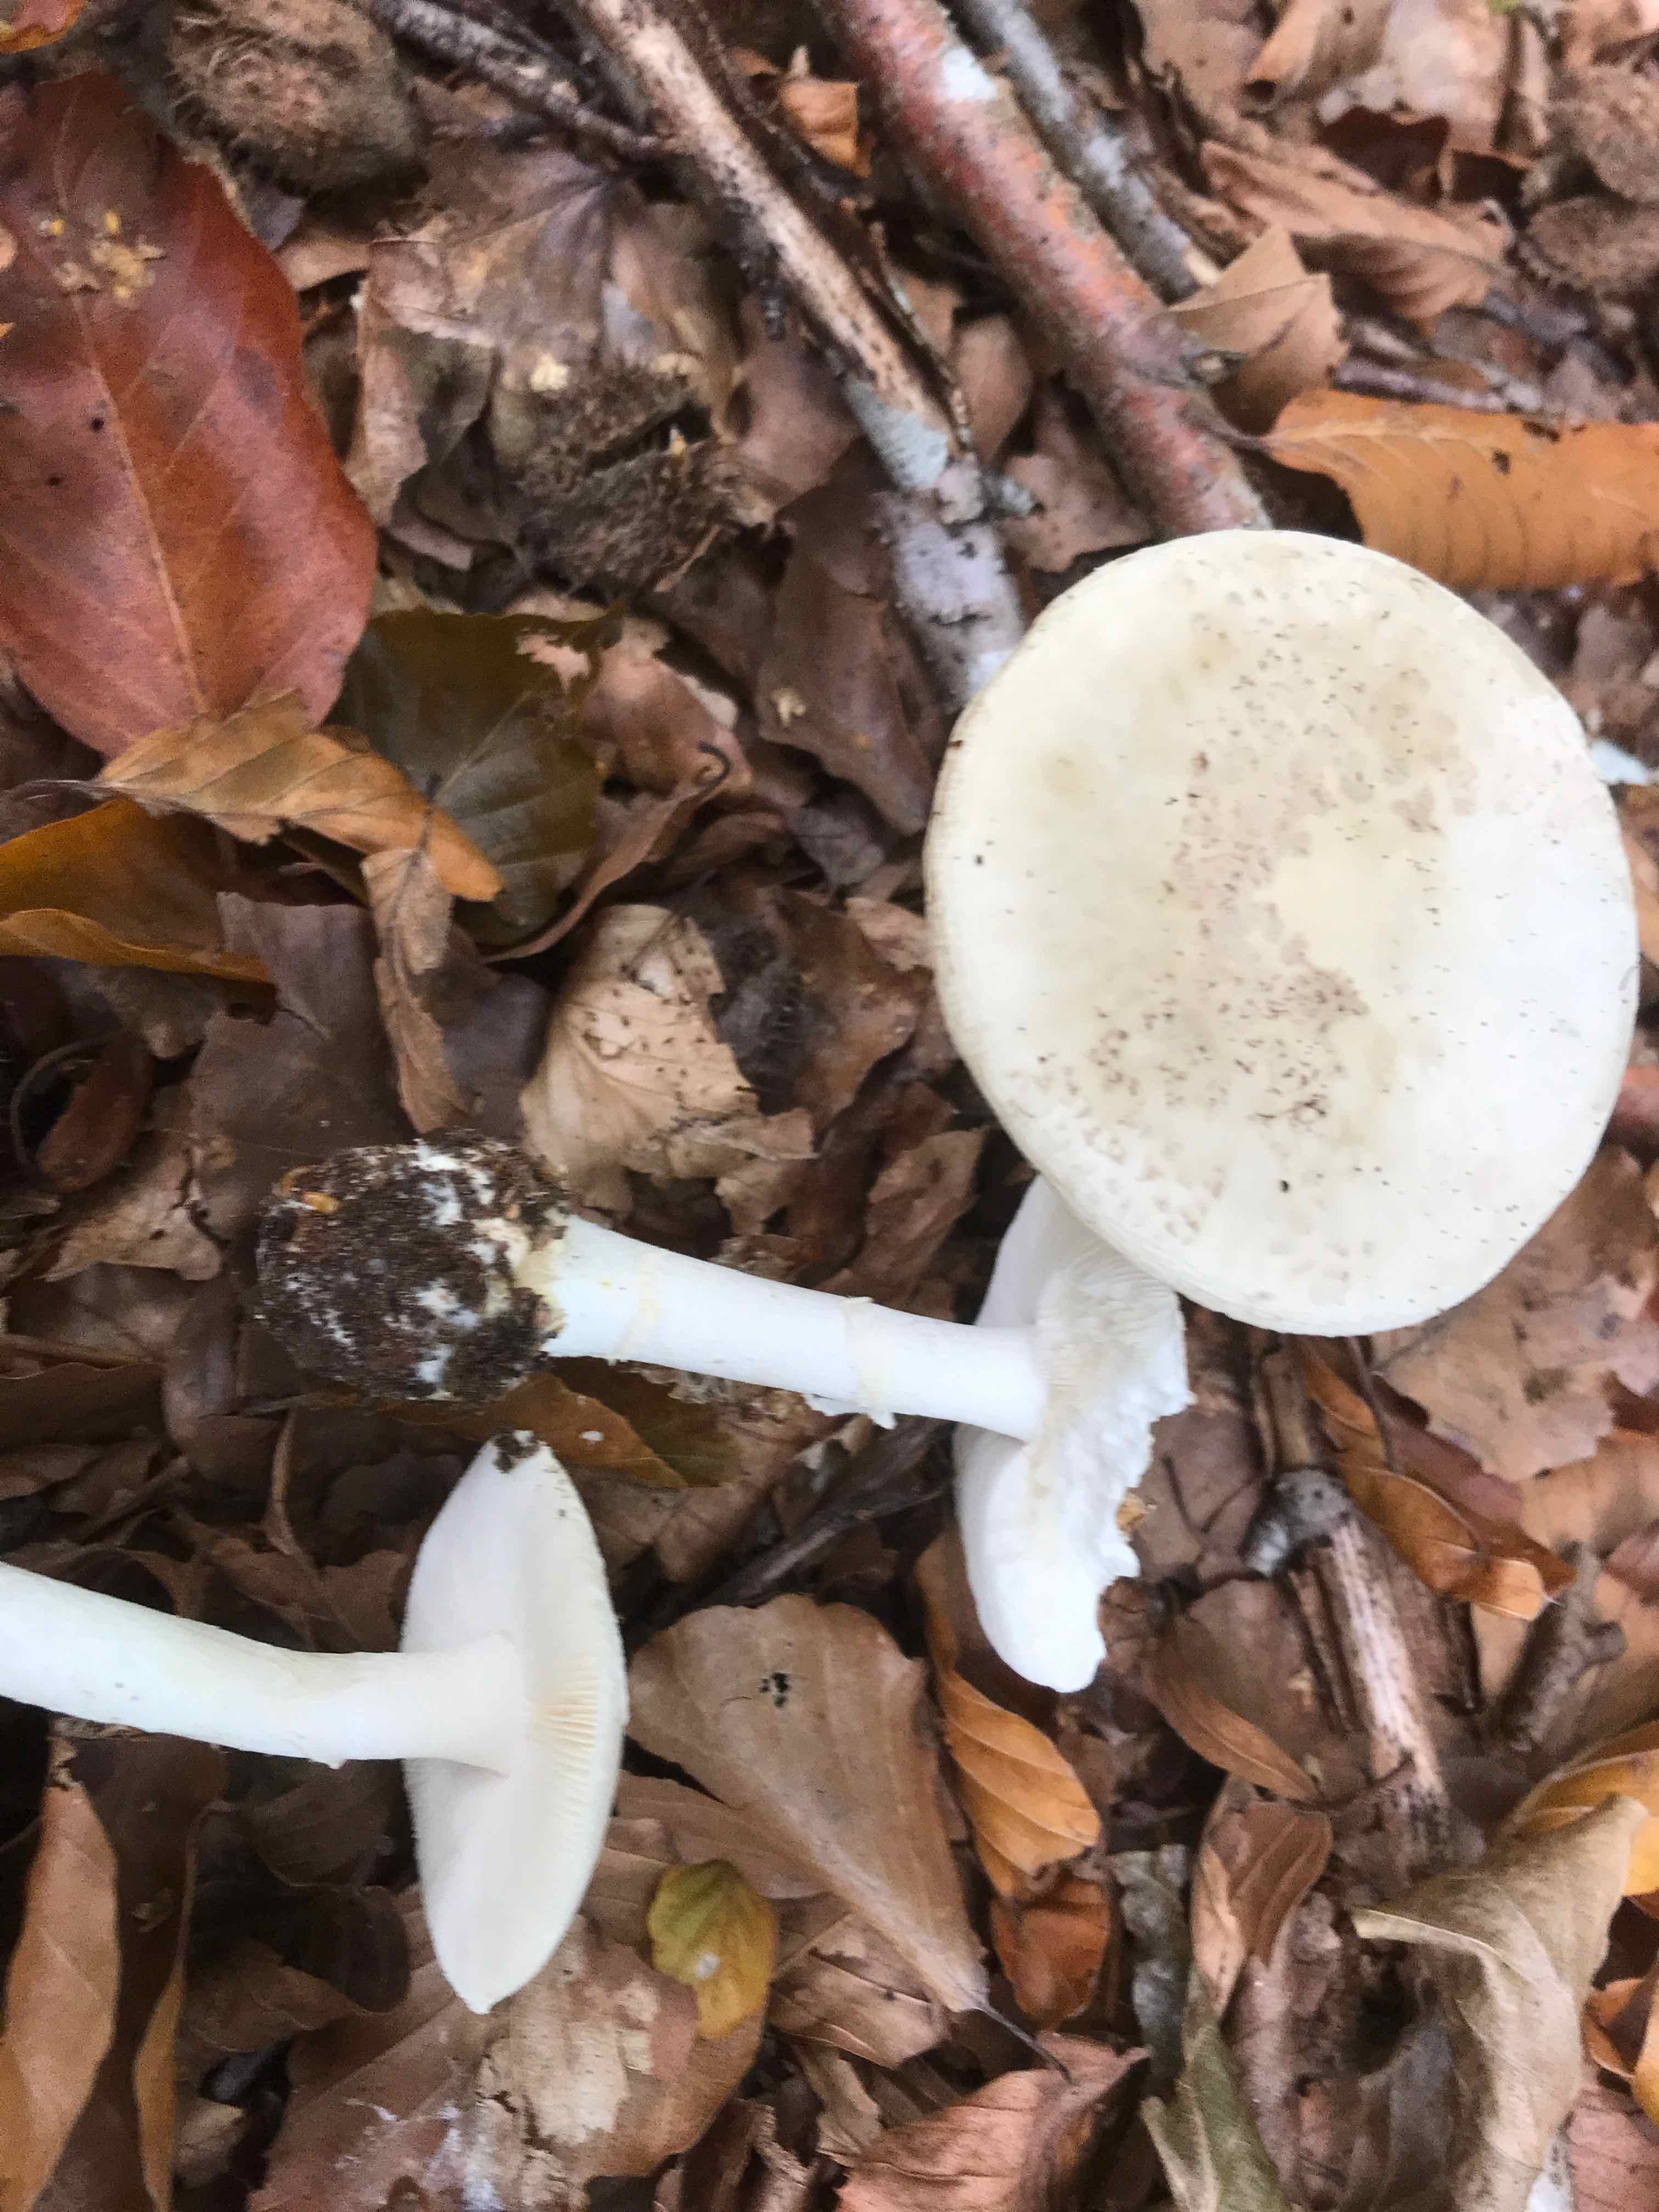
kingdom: Fungi
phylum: Basidiomycota
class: Agaricomycetes
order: Agaricales
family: Amanitaceae
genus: Amanita
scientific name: Amanita citrina
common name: kugleknoldet fluesvamp
